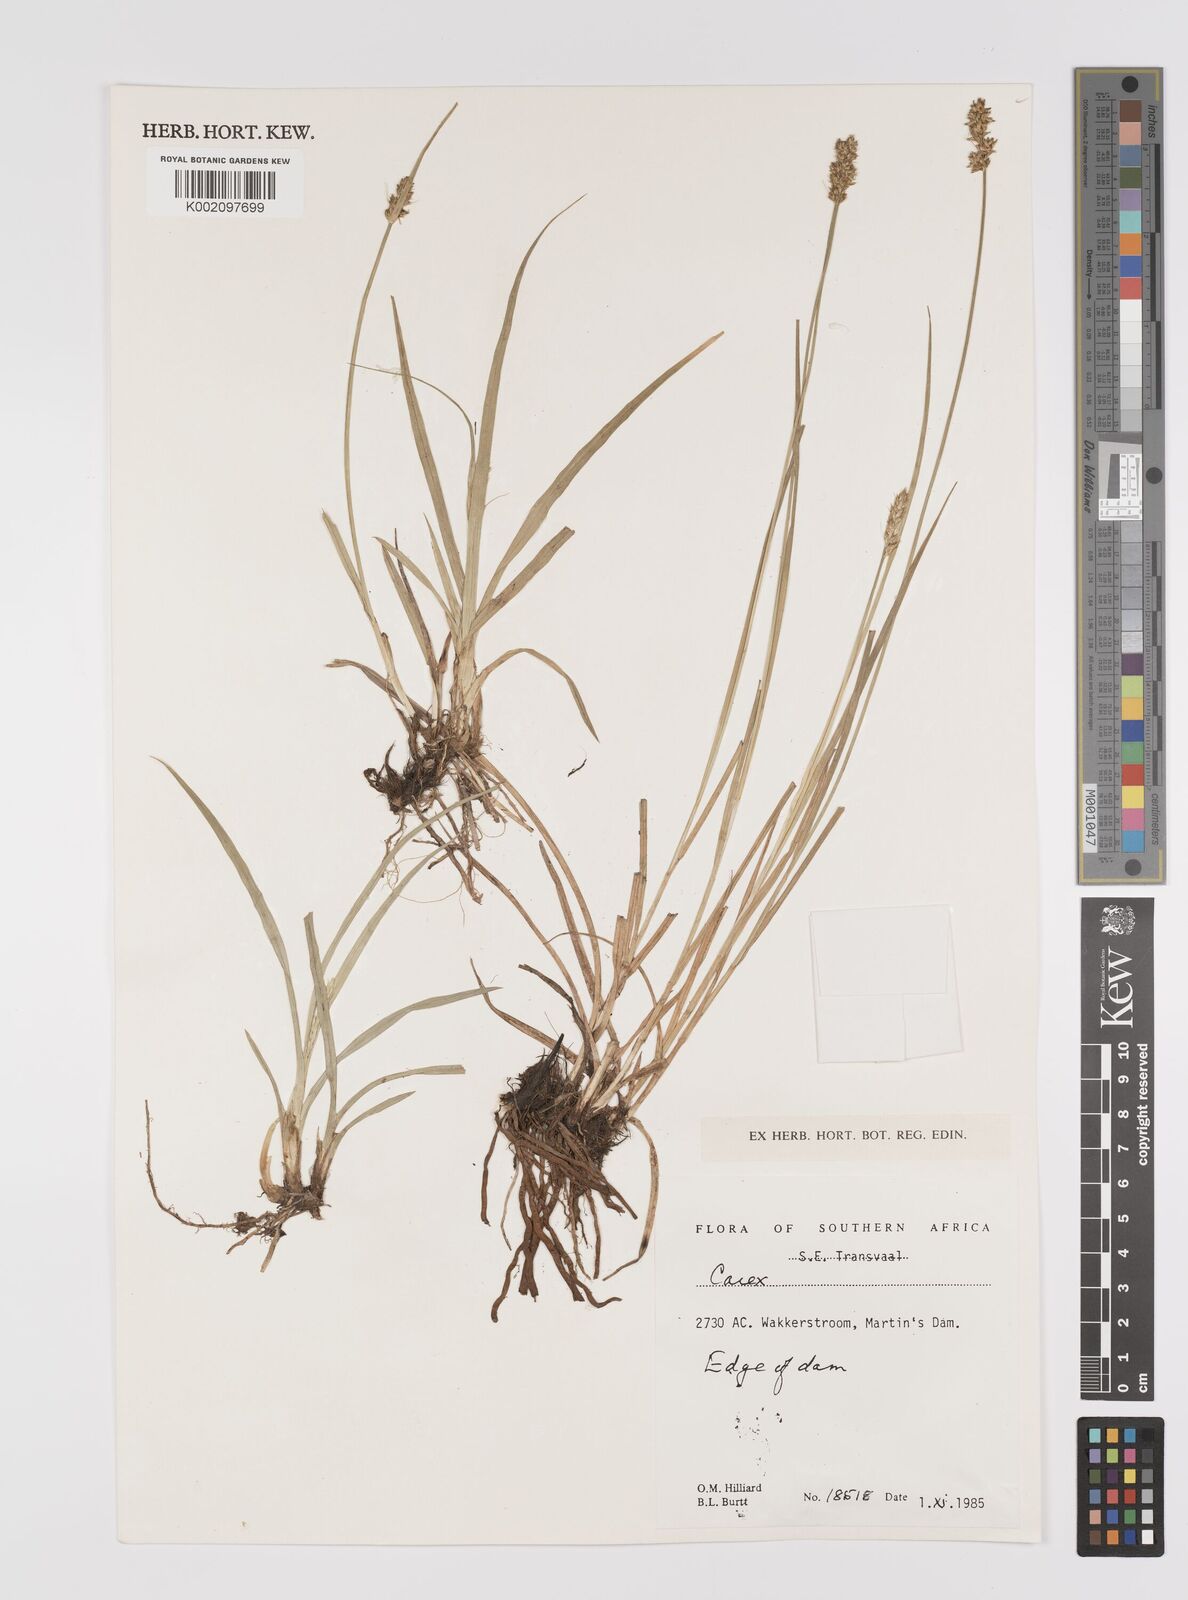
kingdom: Plantae
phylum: Tracheophyta
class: Liliopsida
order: Poales
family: Cyperaceae
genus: Carex
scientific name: Carex
